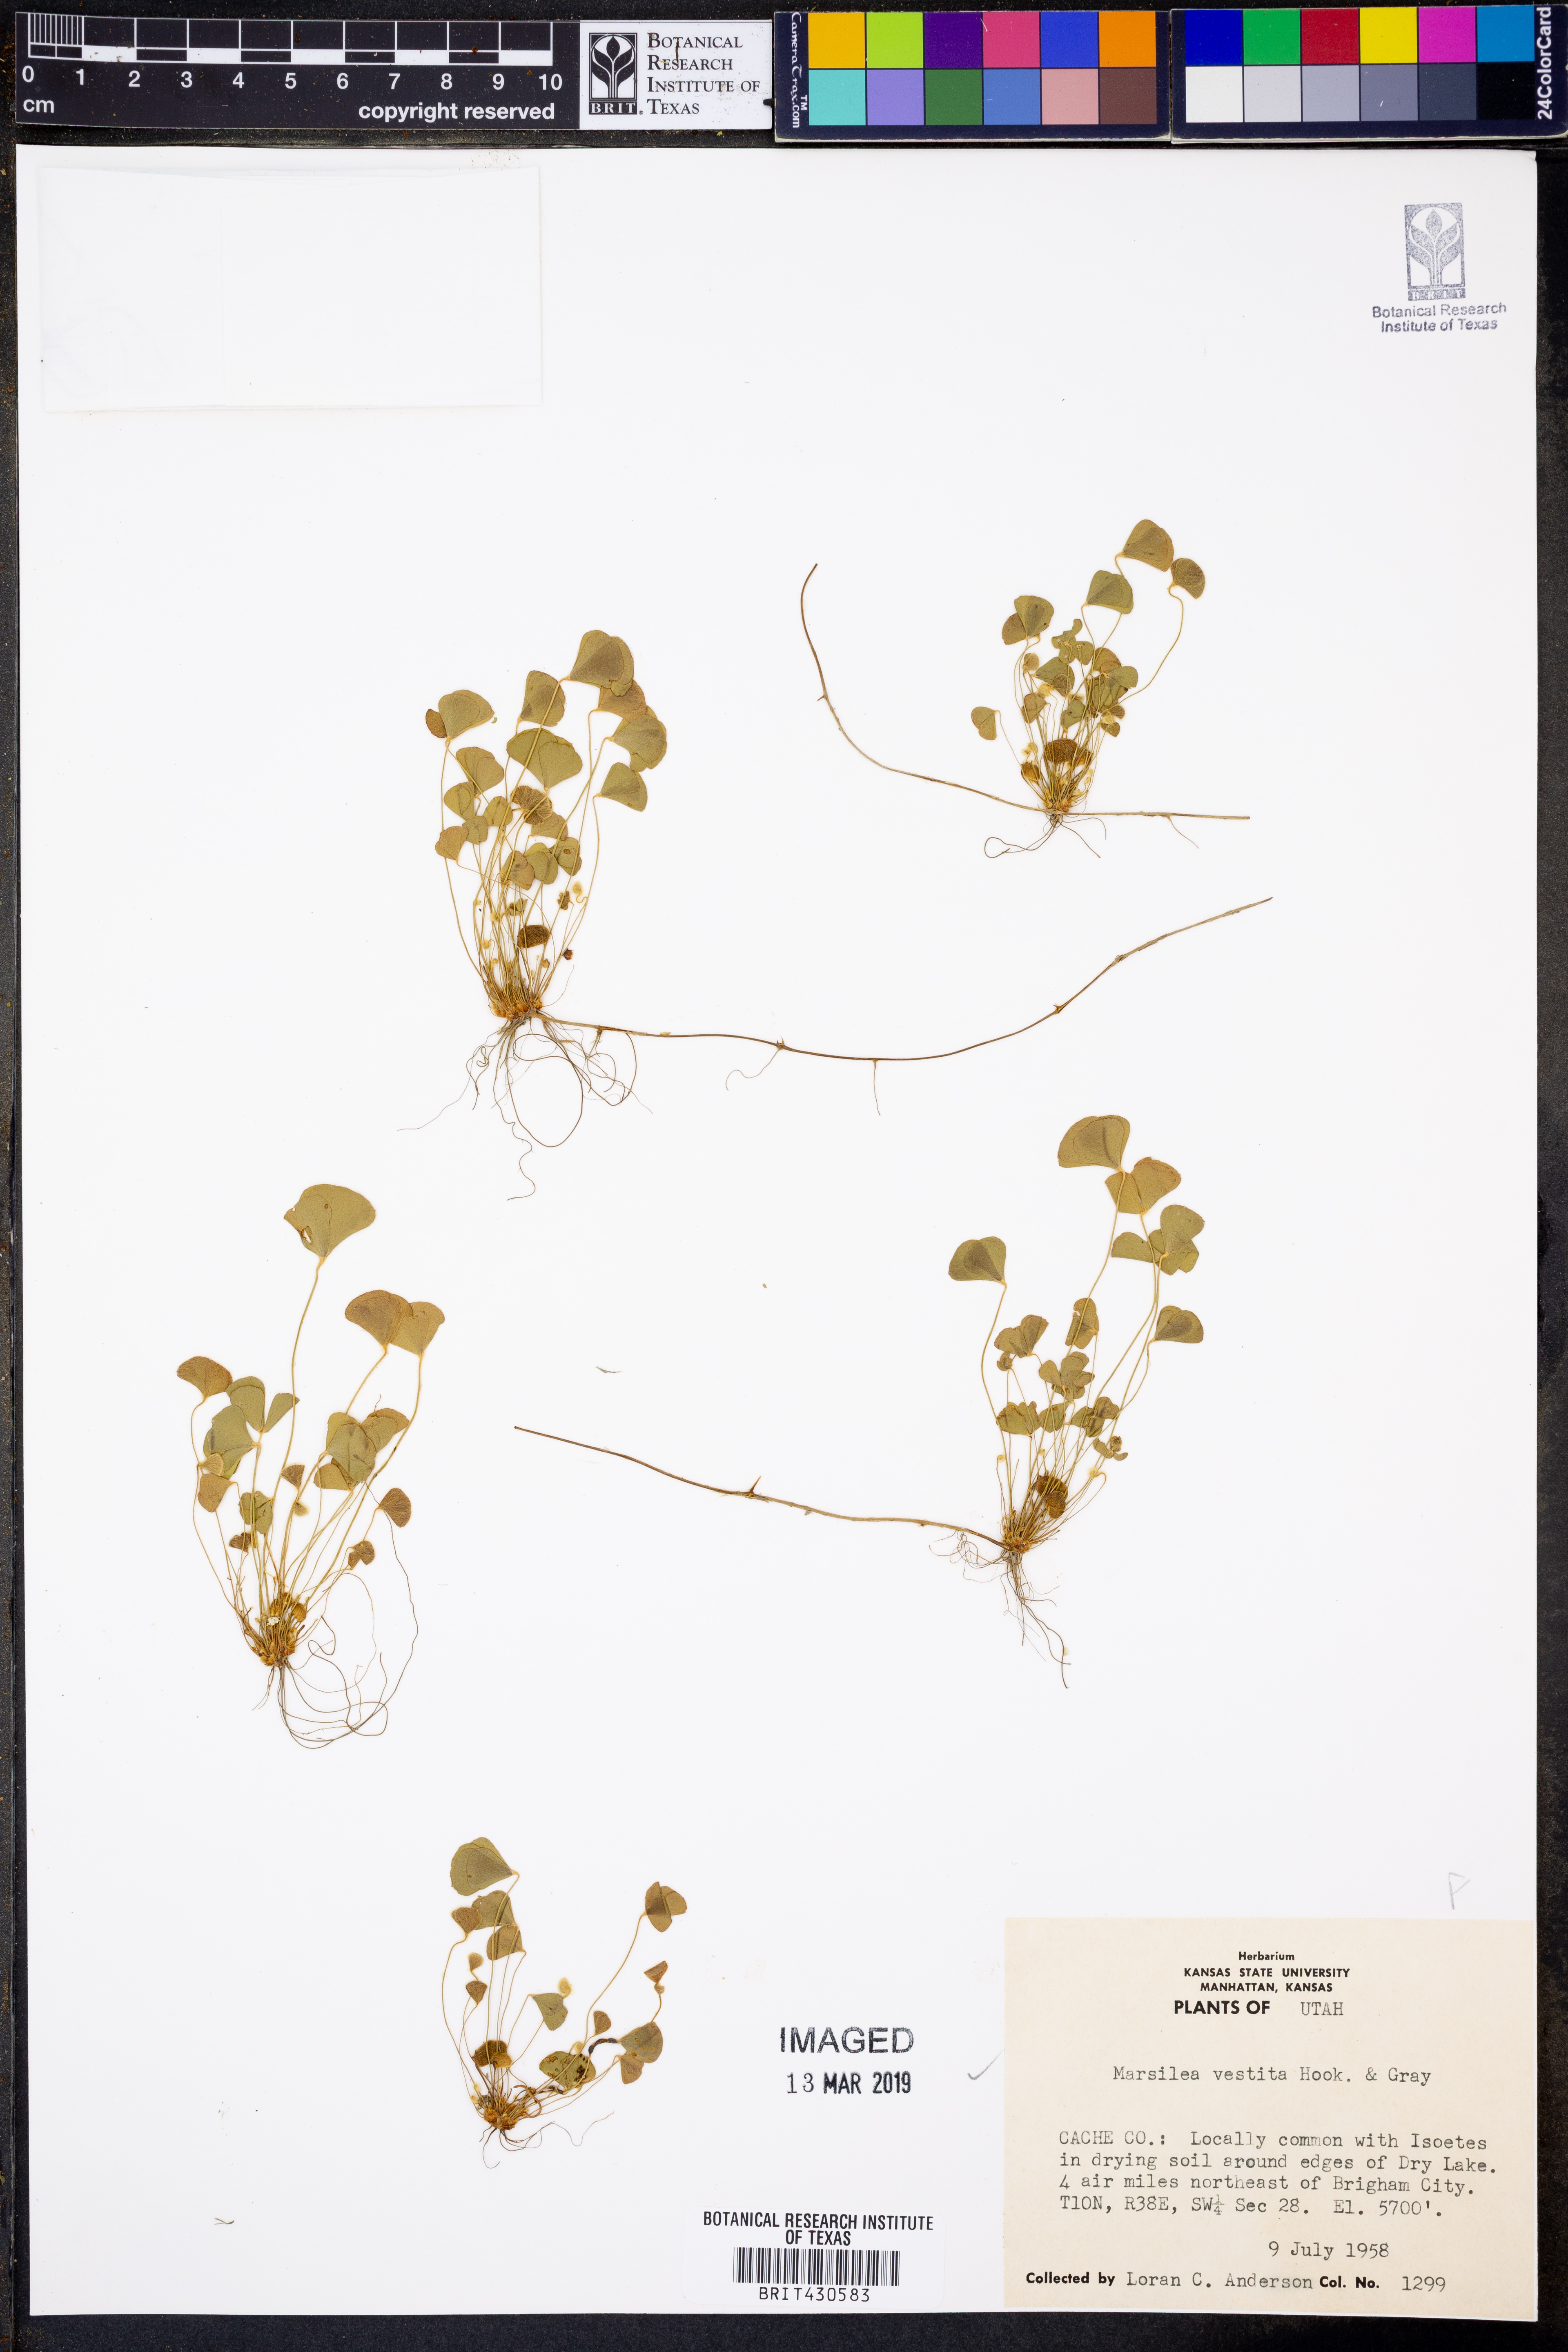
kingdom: Plantae
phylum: Tracheophyta
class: Polypodiopsida
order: Salviniales
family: Marsileaceae
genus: Marsilea
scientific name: Marsilea vestita
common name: Hooked-pepperwort
